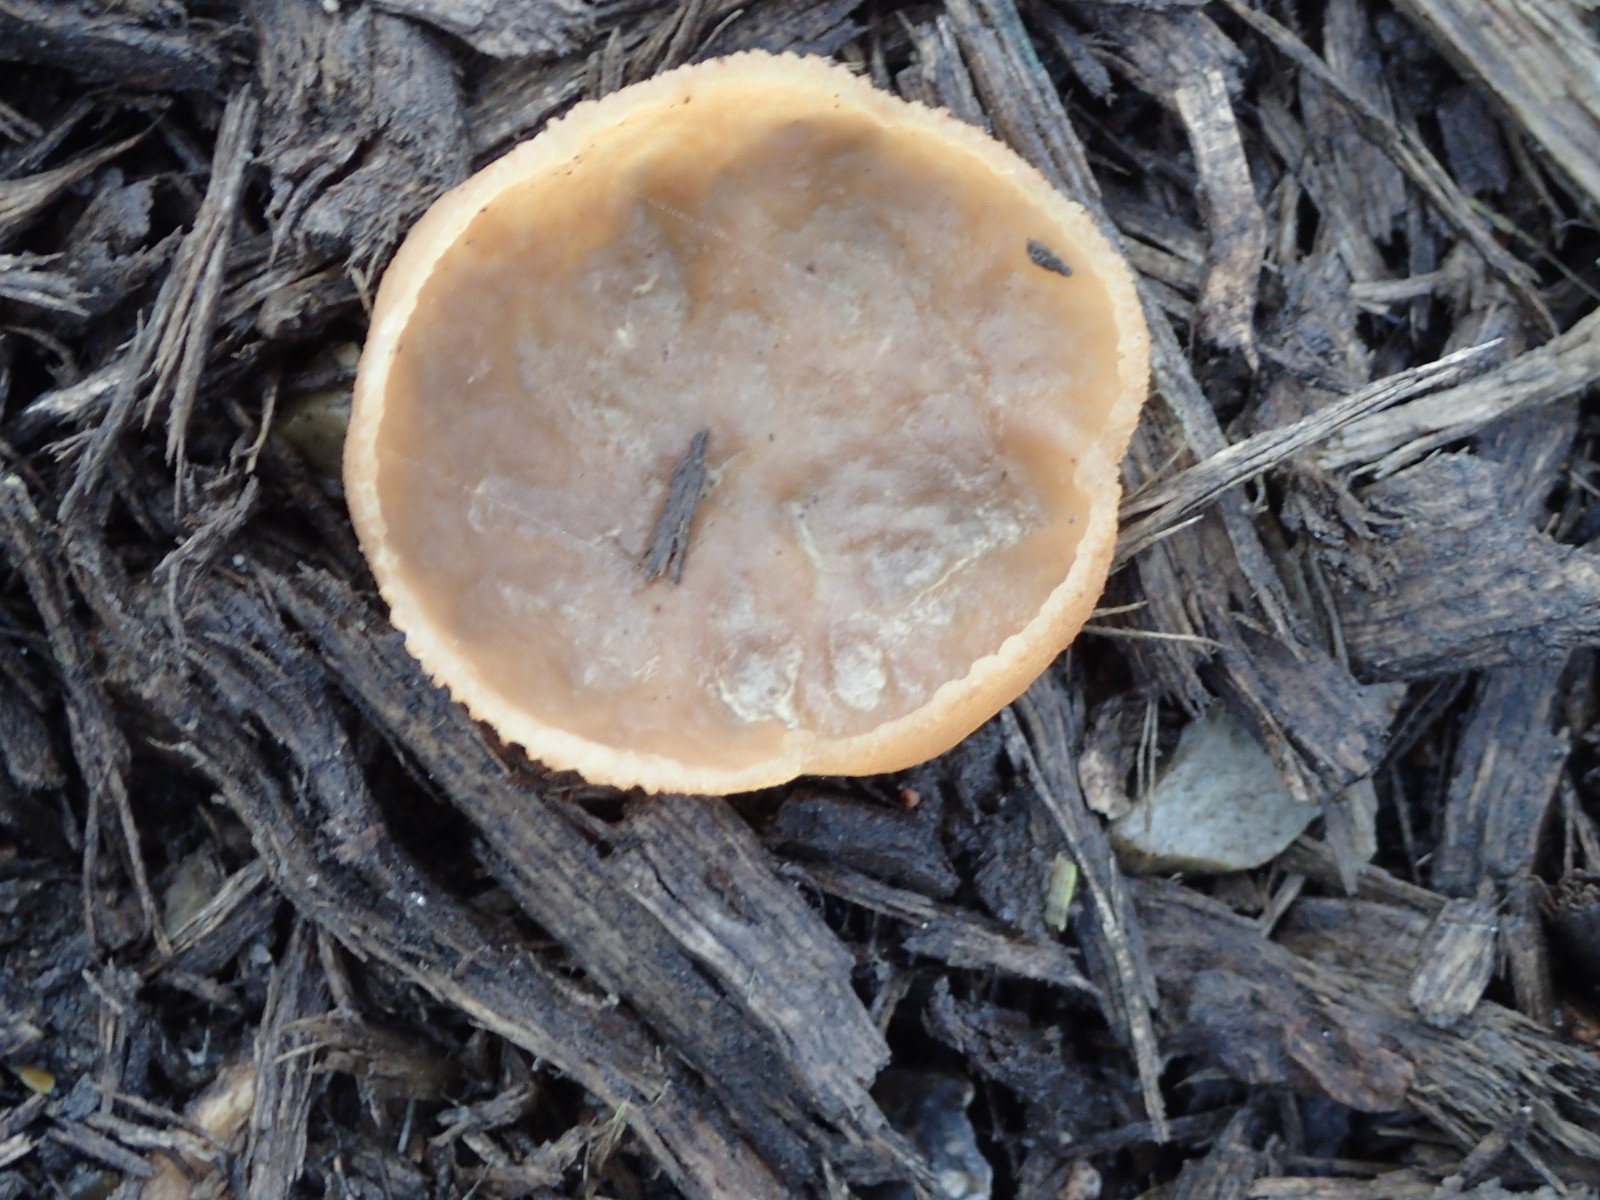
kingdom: Fungi
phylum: Ascomycota
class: Pezizomycetes
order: Pezizales
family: Pezizaceae
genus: Peziza
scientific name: Peziza
